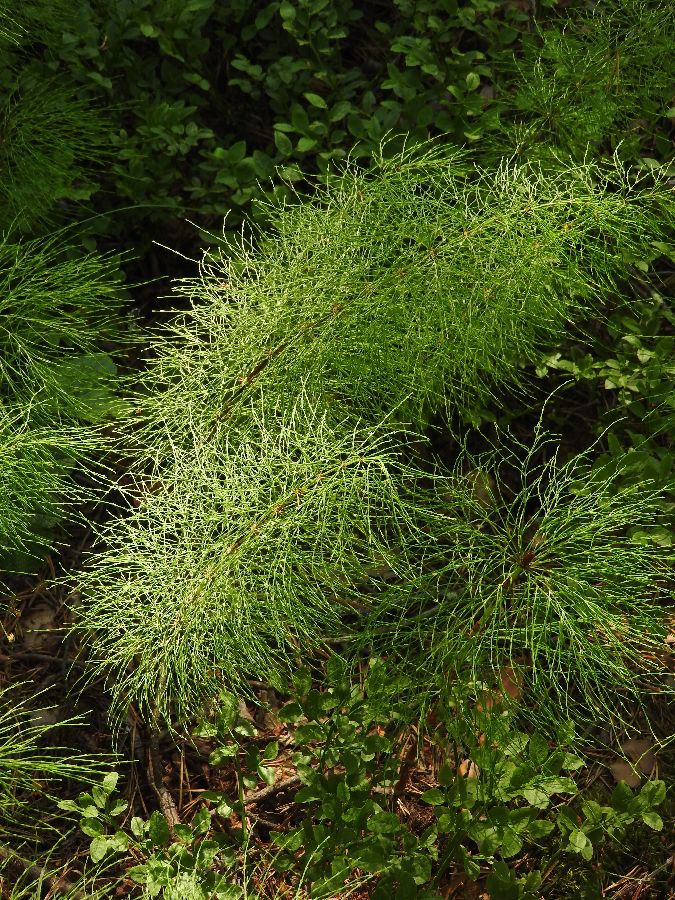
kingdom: Plantae
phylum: Tracheophyta
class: Polypodiopsida
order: Equisetales
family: Equisetaceae
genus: Equisetum
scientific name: Equisetum sylvaticum
